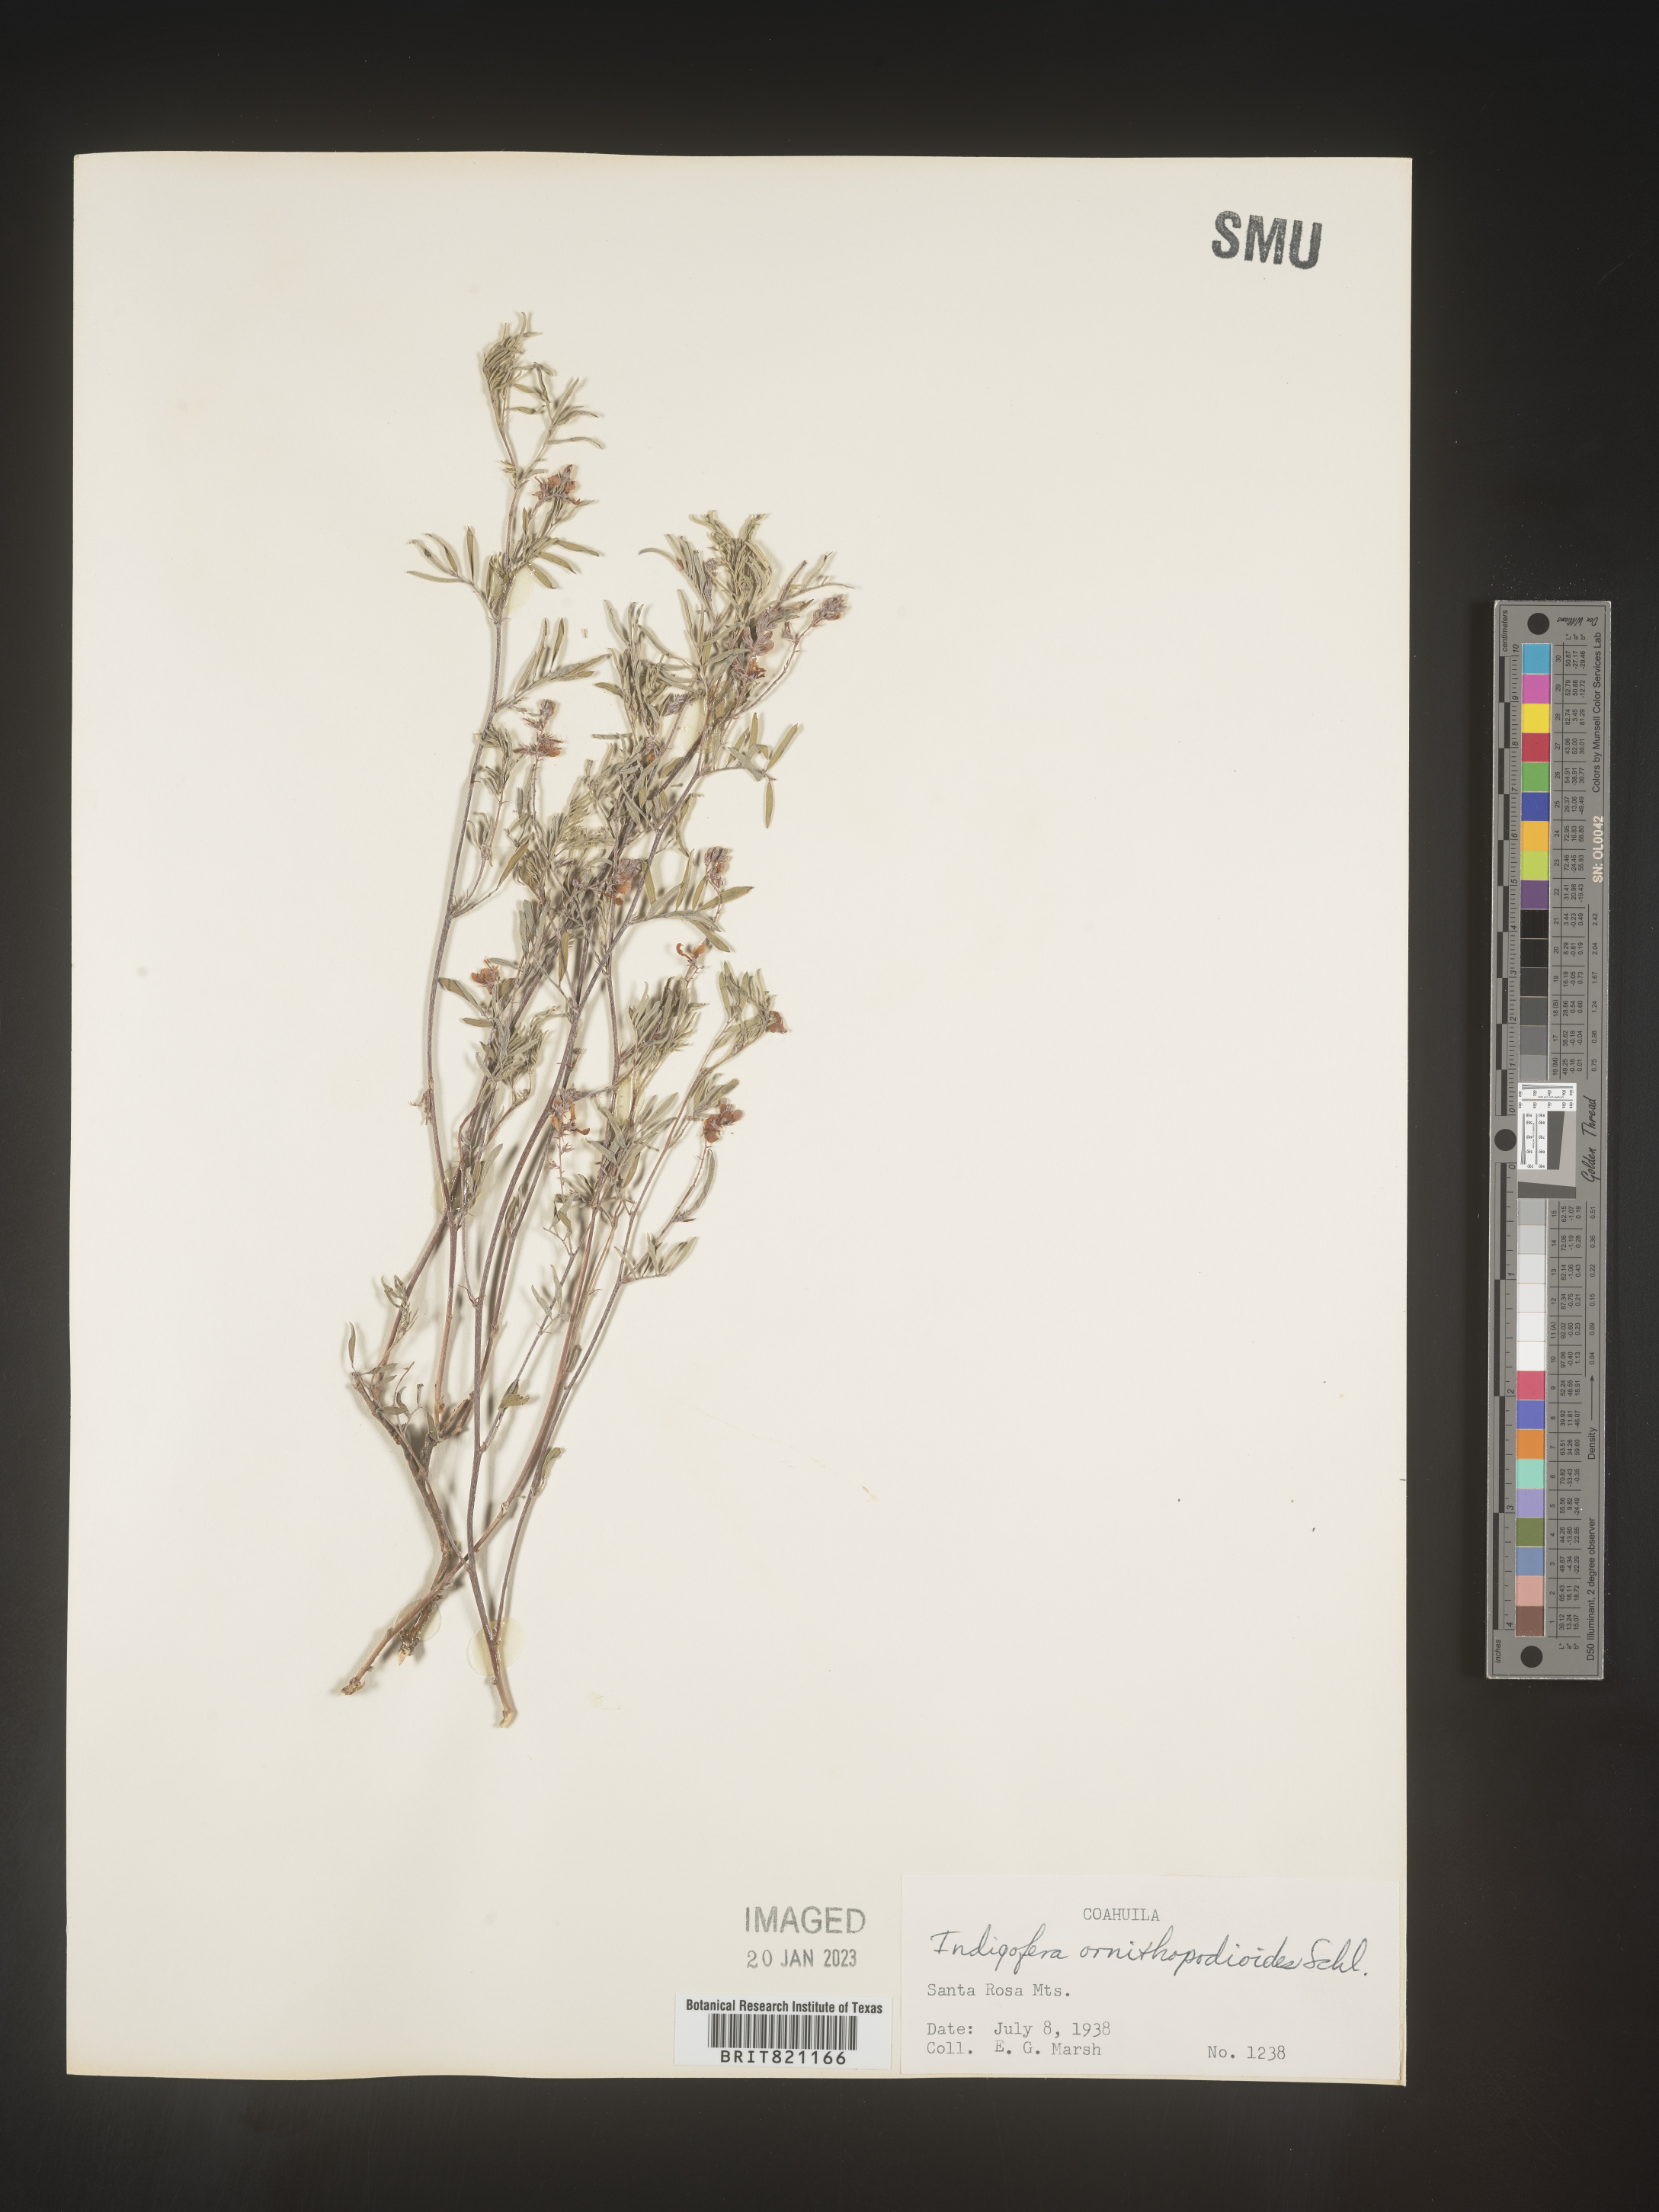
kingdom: Plantae
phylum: Tracheophyta
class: Magnoliopsida
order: Fabales
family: Fabaceae
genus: Indigofera
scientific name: Indigofera
